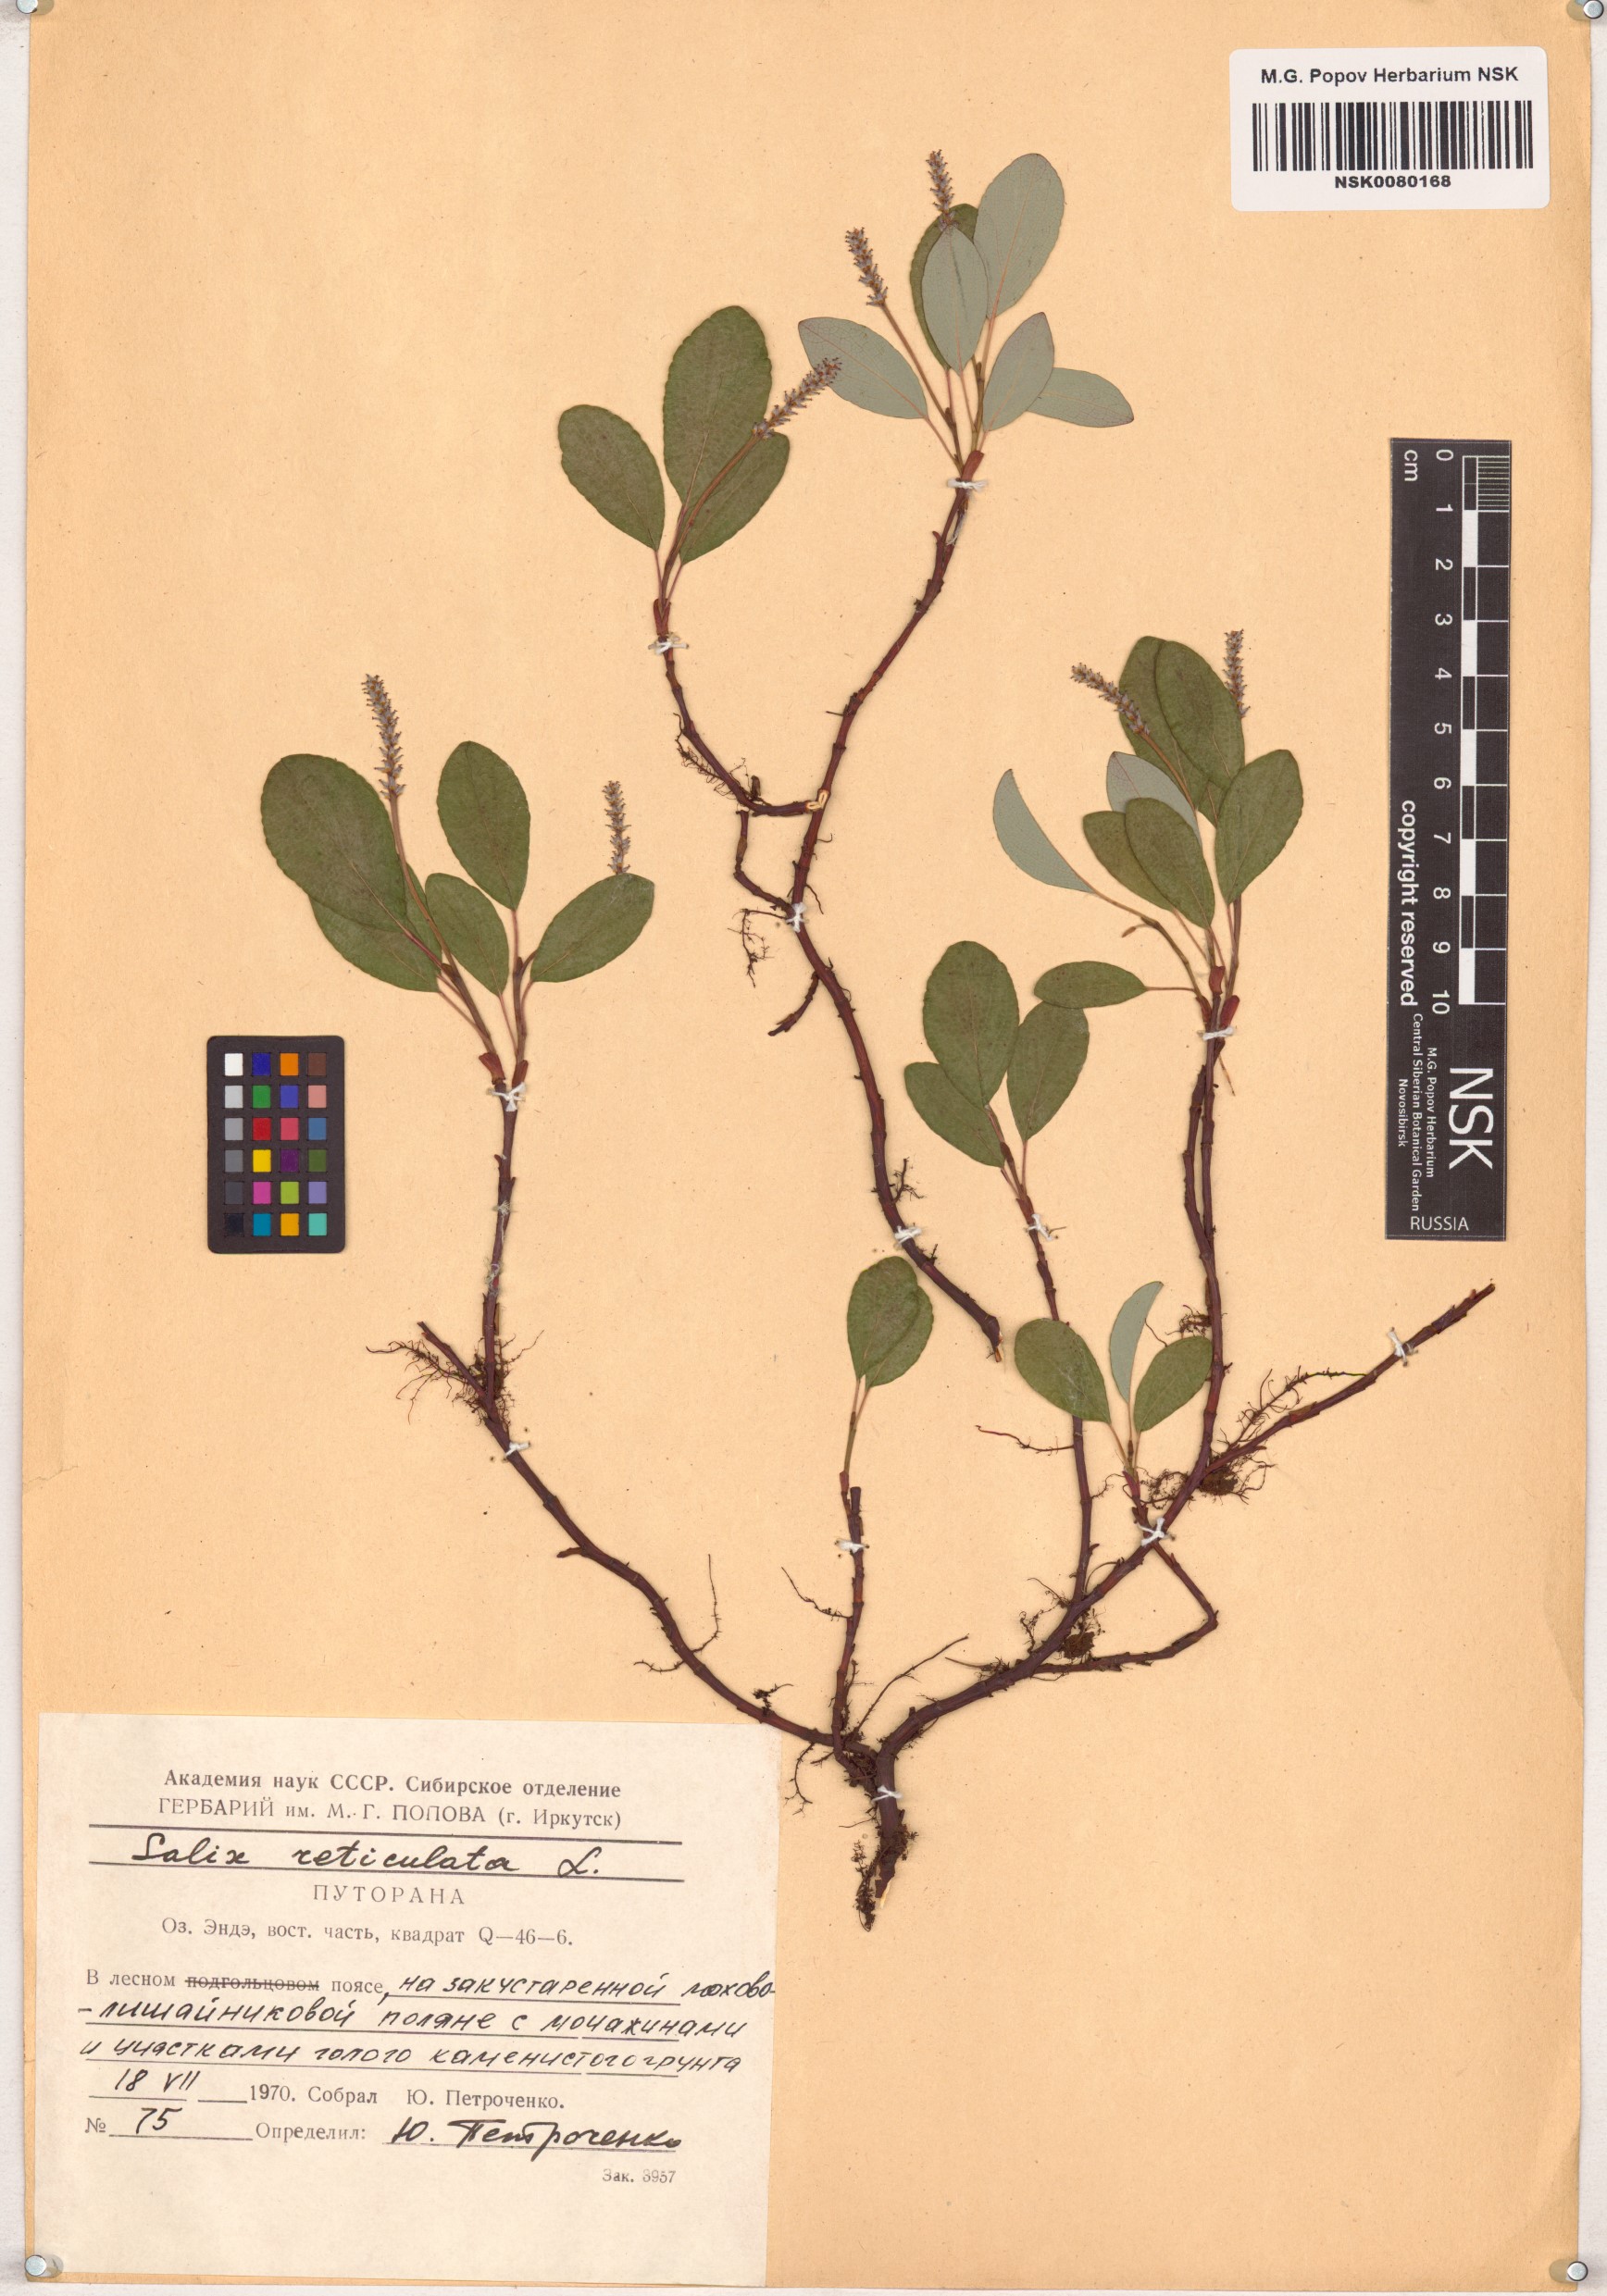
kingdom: Plantae
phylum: Tracheophyta
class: Magnoliopsida
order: Malpighiales
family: Salicaceae
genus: Salix
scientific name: Salix reticulata
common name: Net-leaved willow
